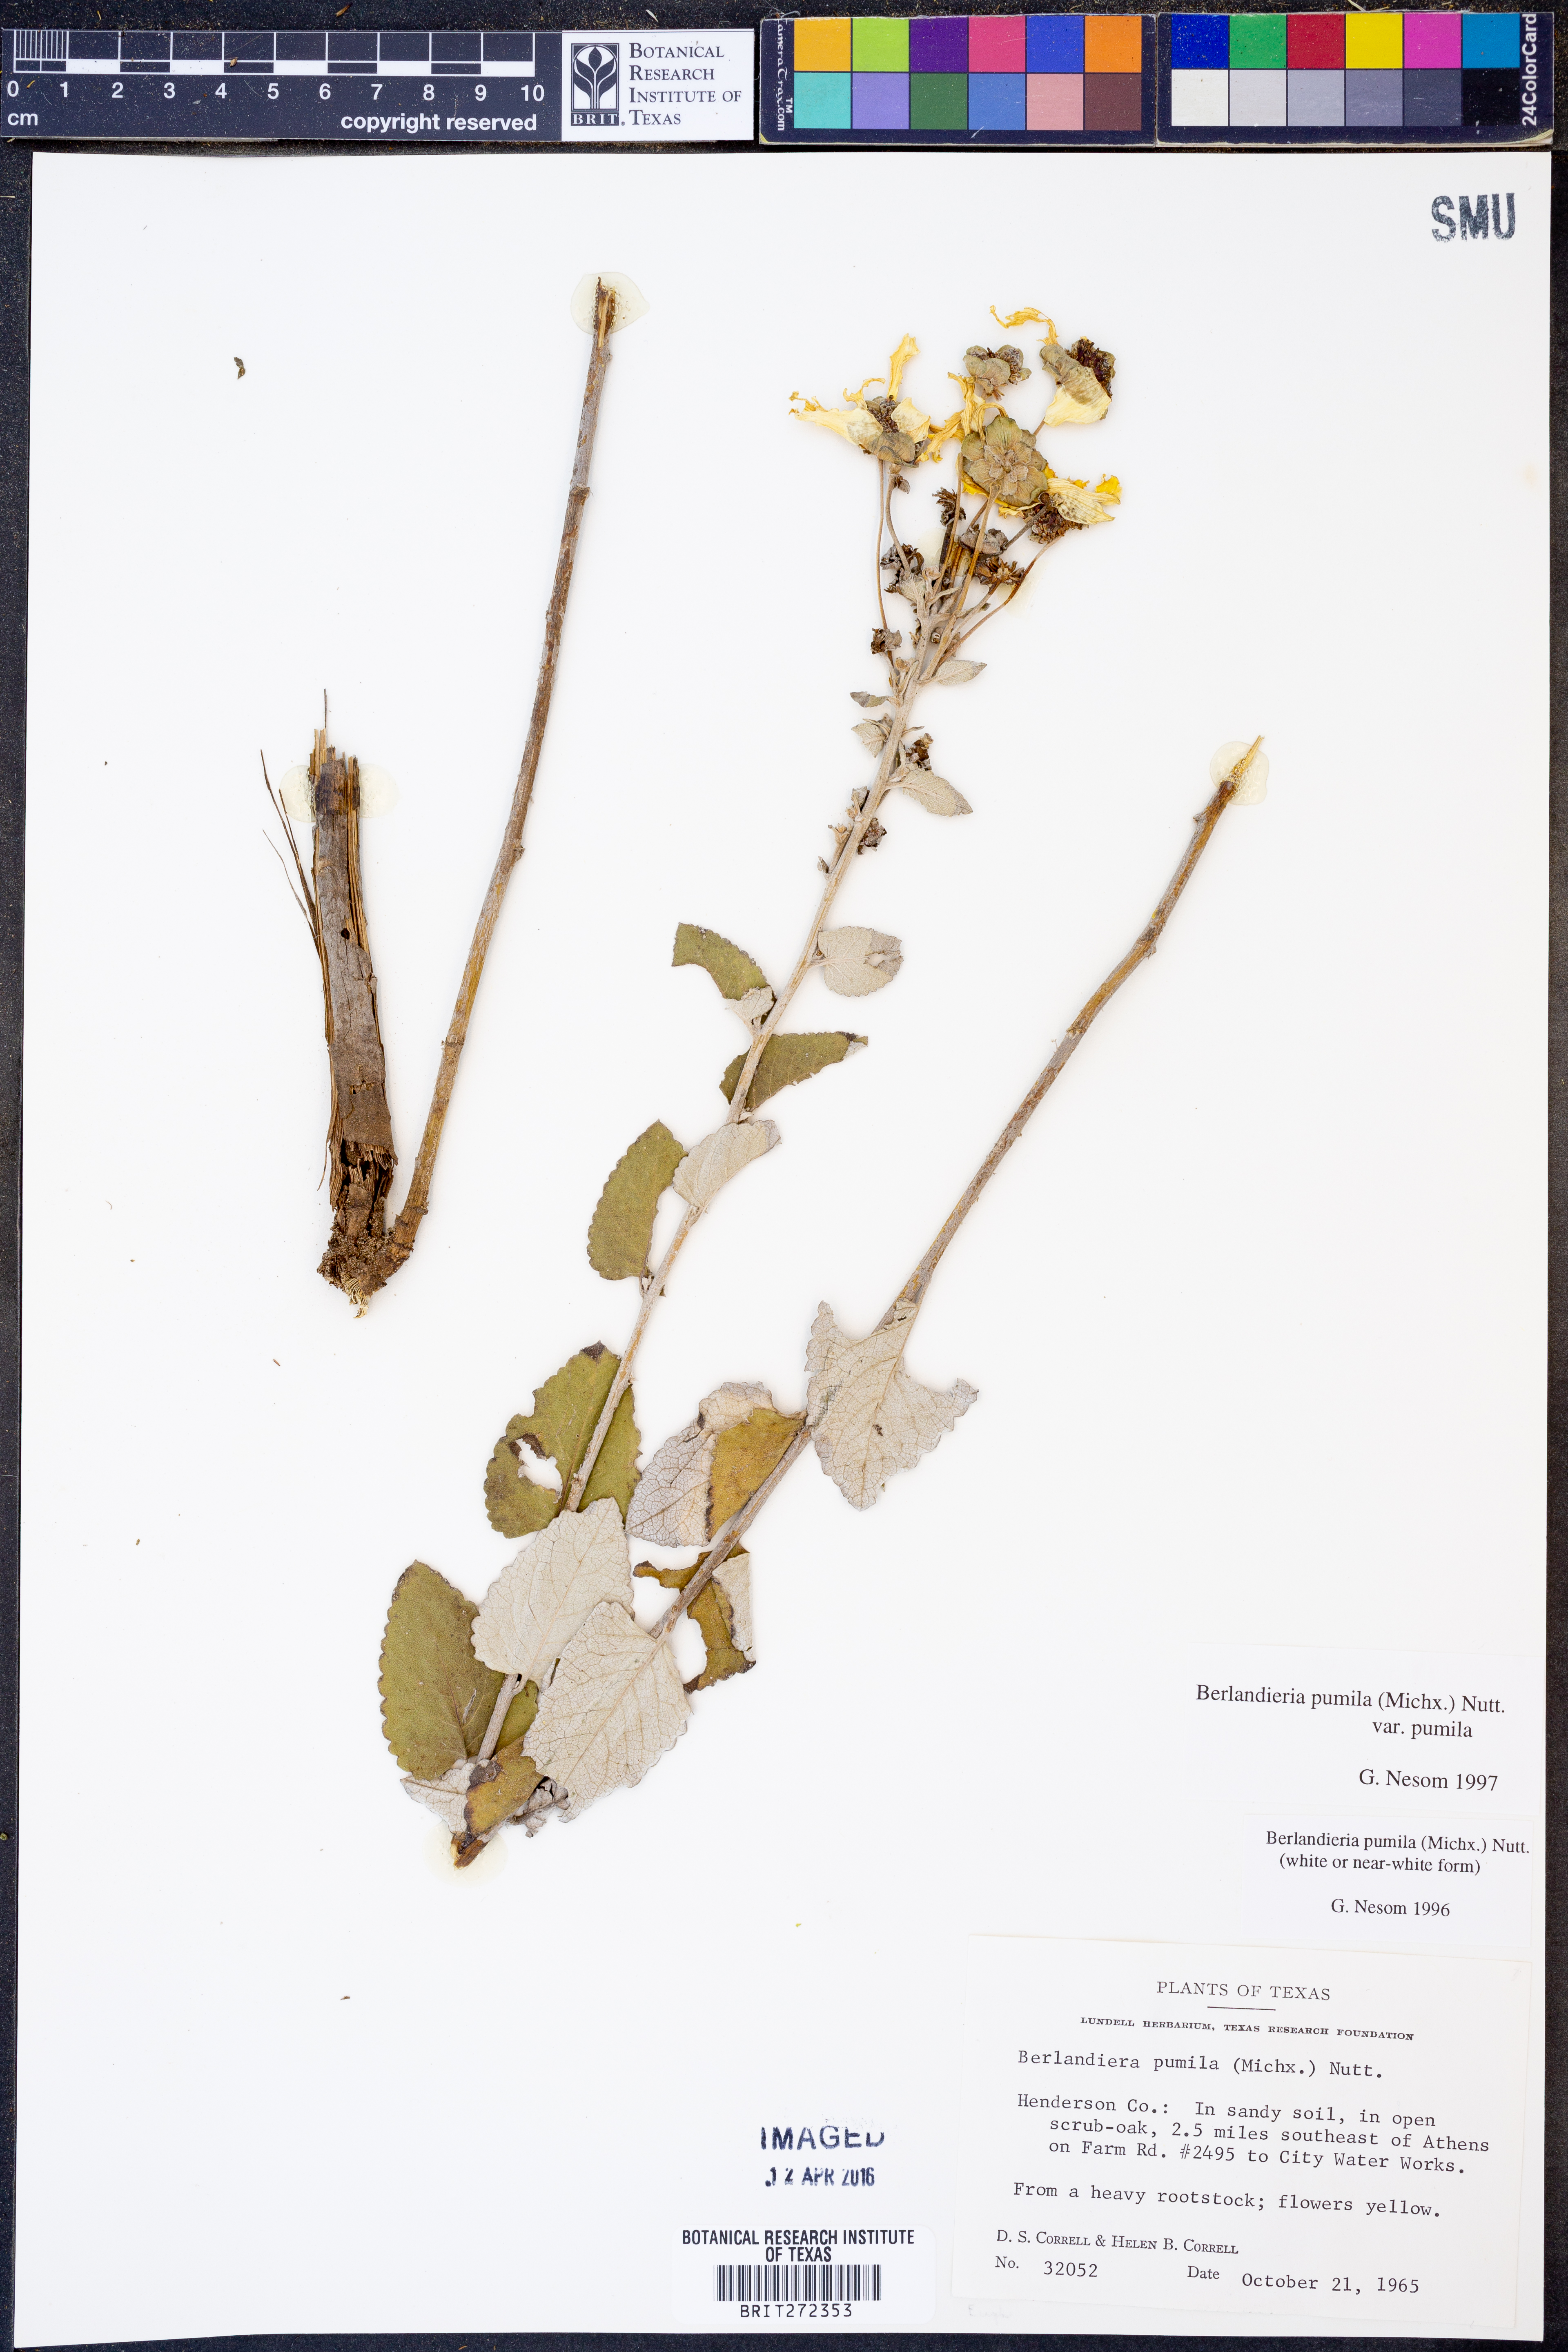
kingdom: Plantae
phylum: Tracheophyta
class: Magnoliopsida
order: Asterales
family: Asteraceae
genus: Berlandiera
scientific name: Berlandiera pumila
